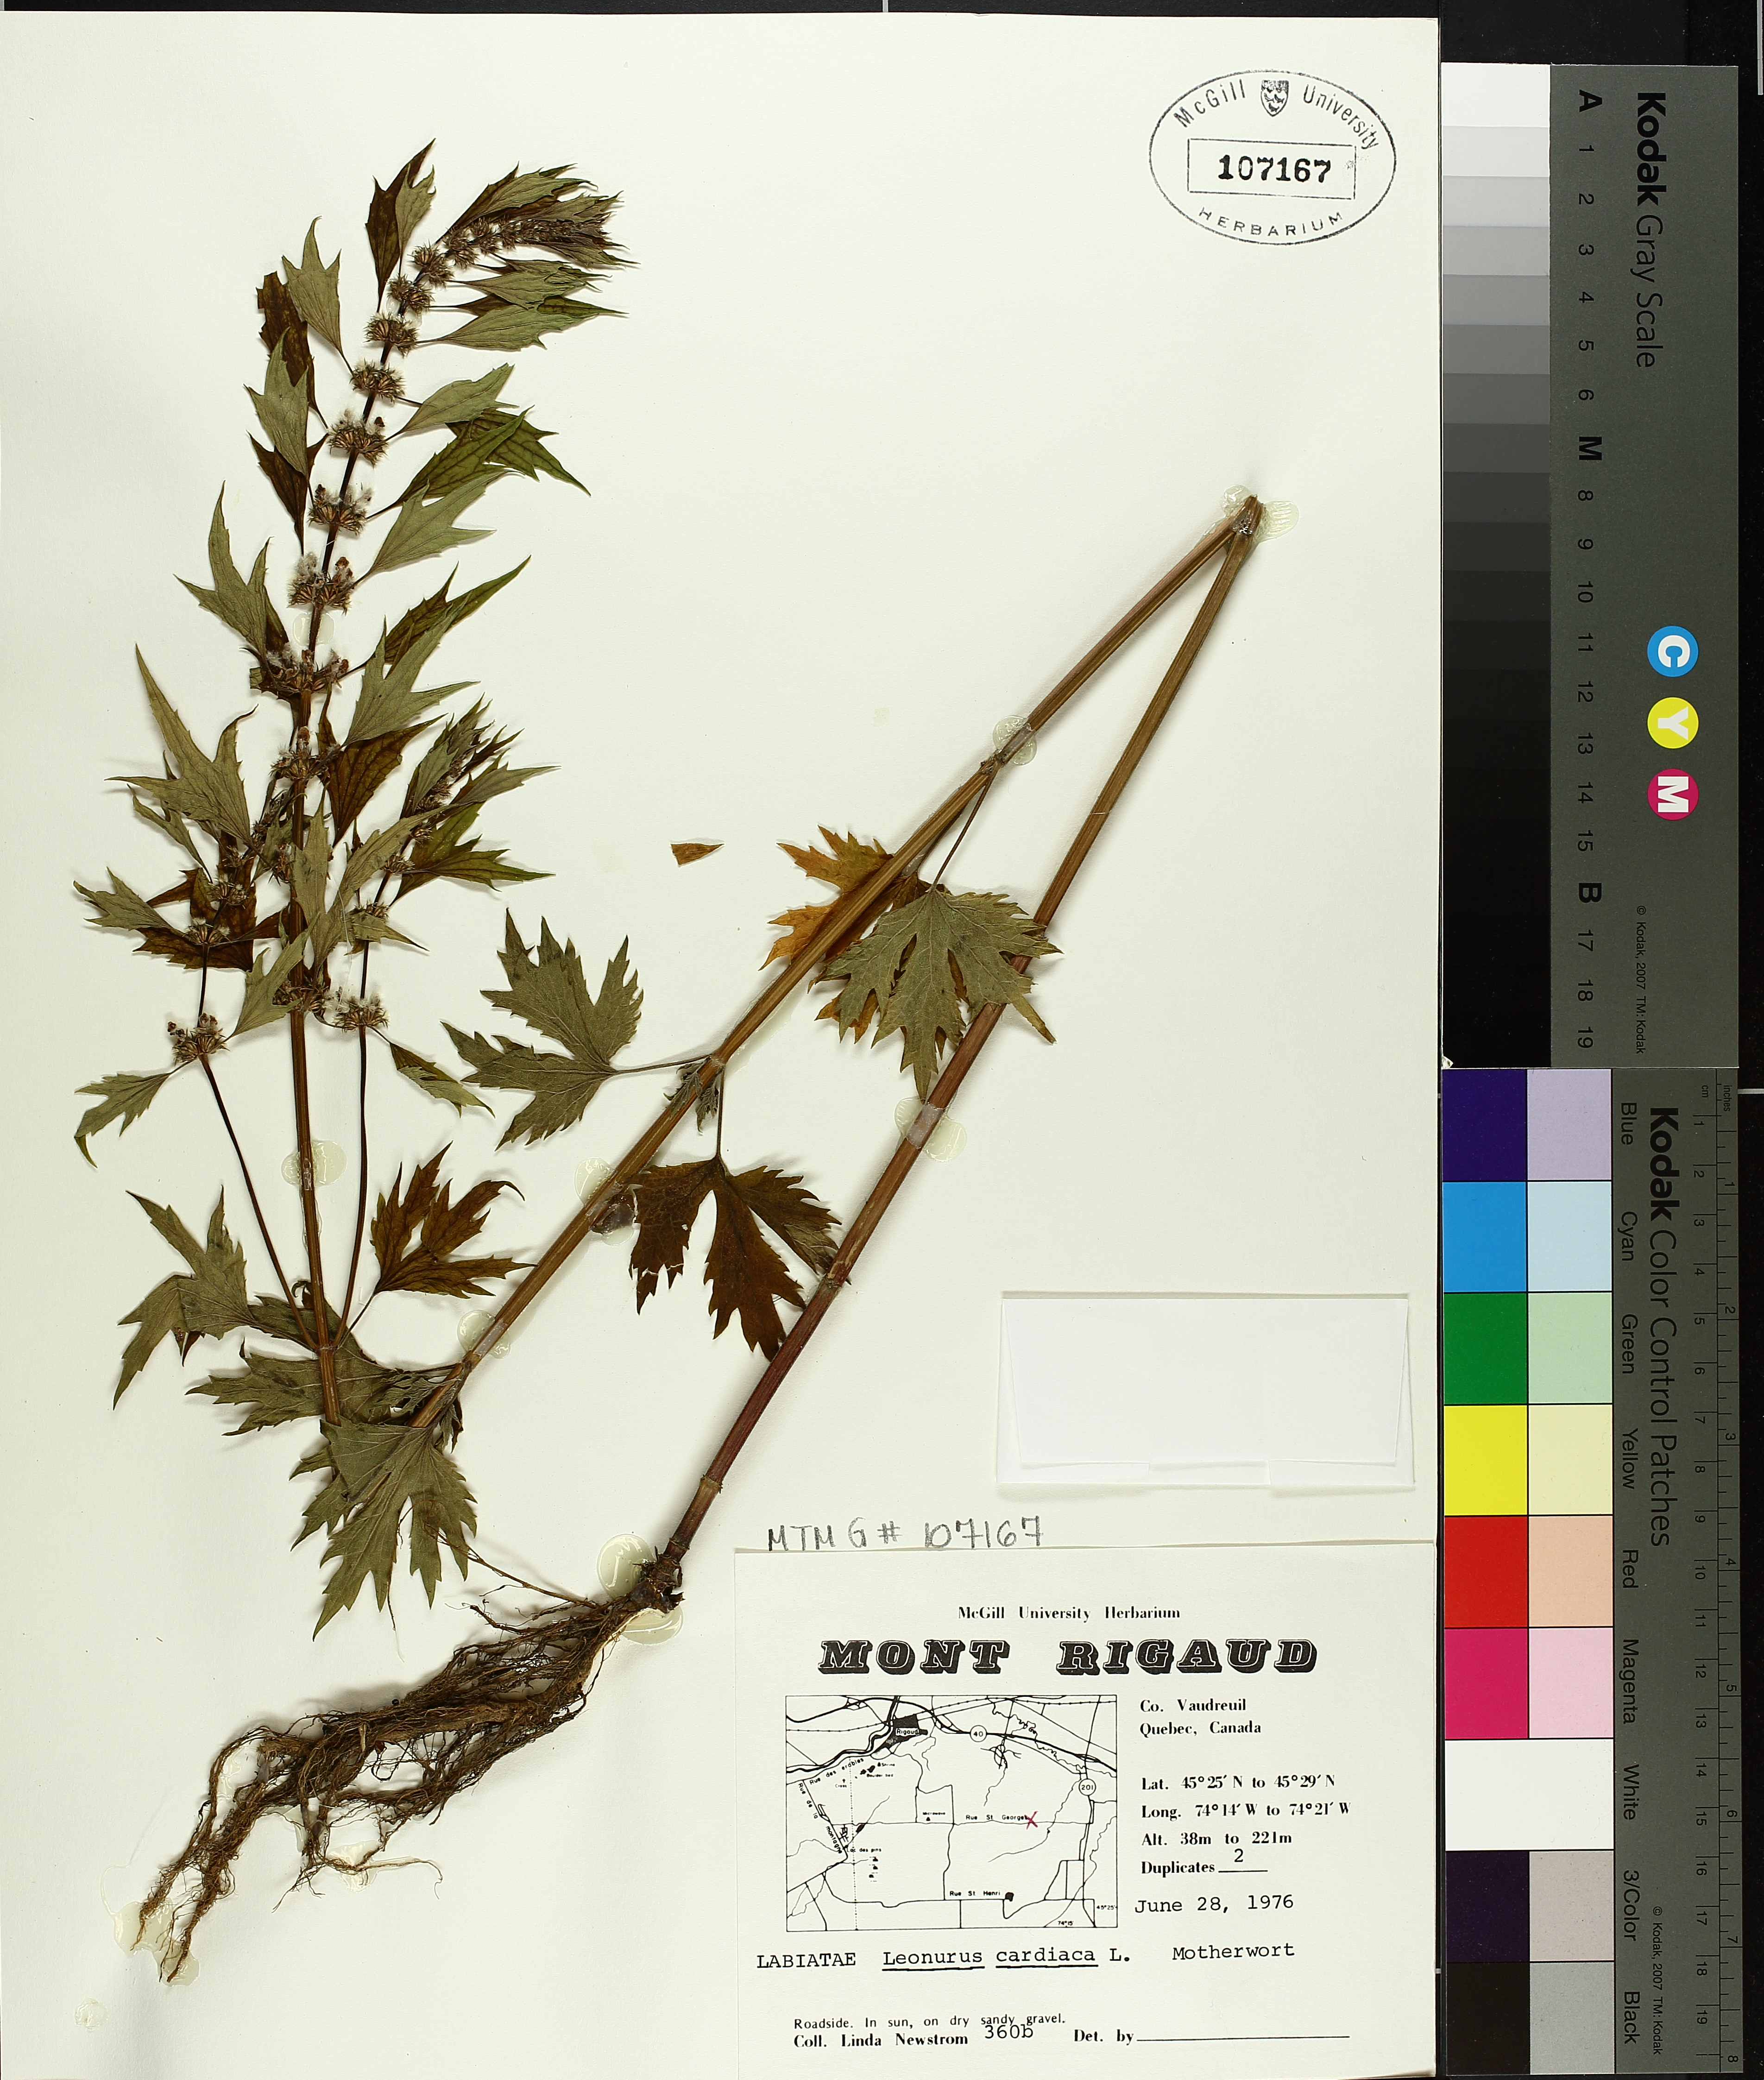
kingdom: Plantae
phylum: Tracheophyta
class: Magnoliopsida
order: Lamiales
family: Lamiaceae
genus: Leonurus
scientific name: Leonurus cardiaca
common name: Motherwort
